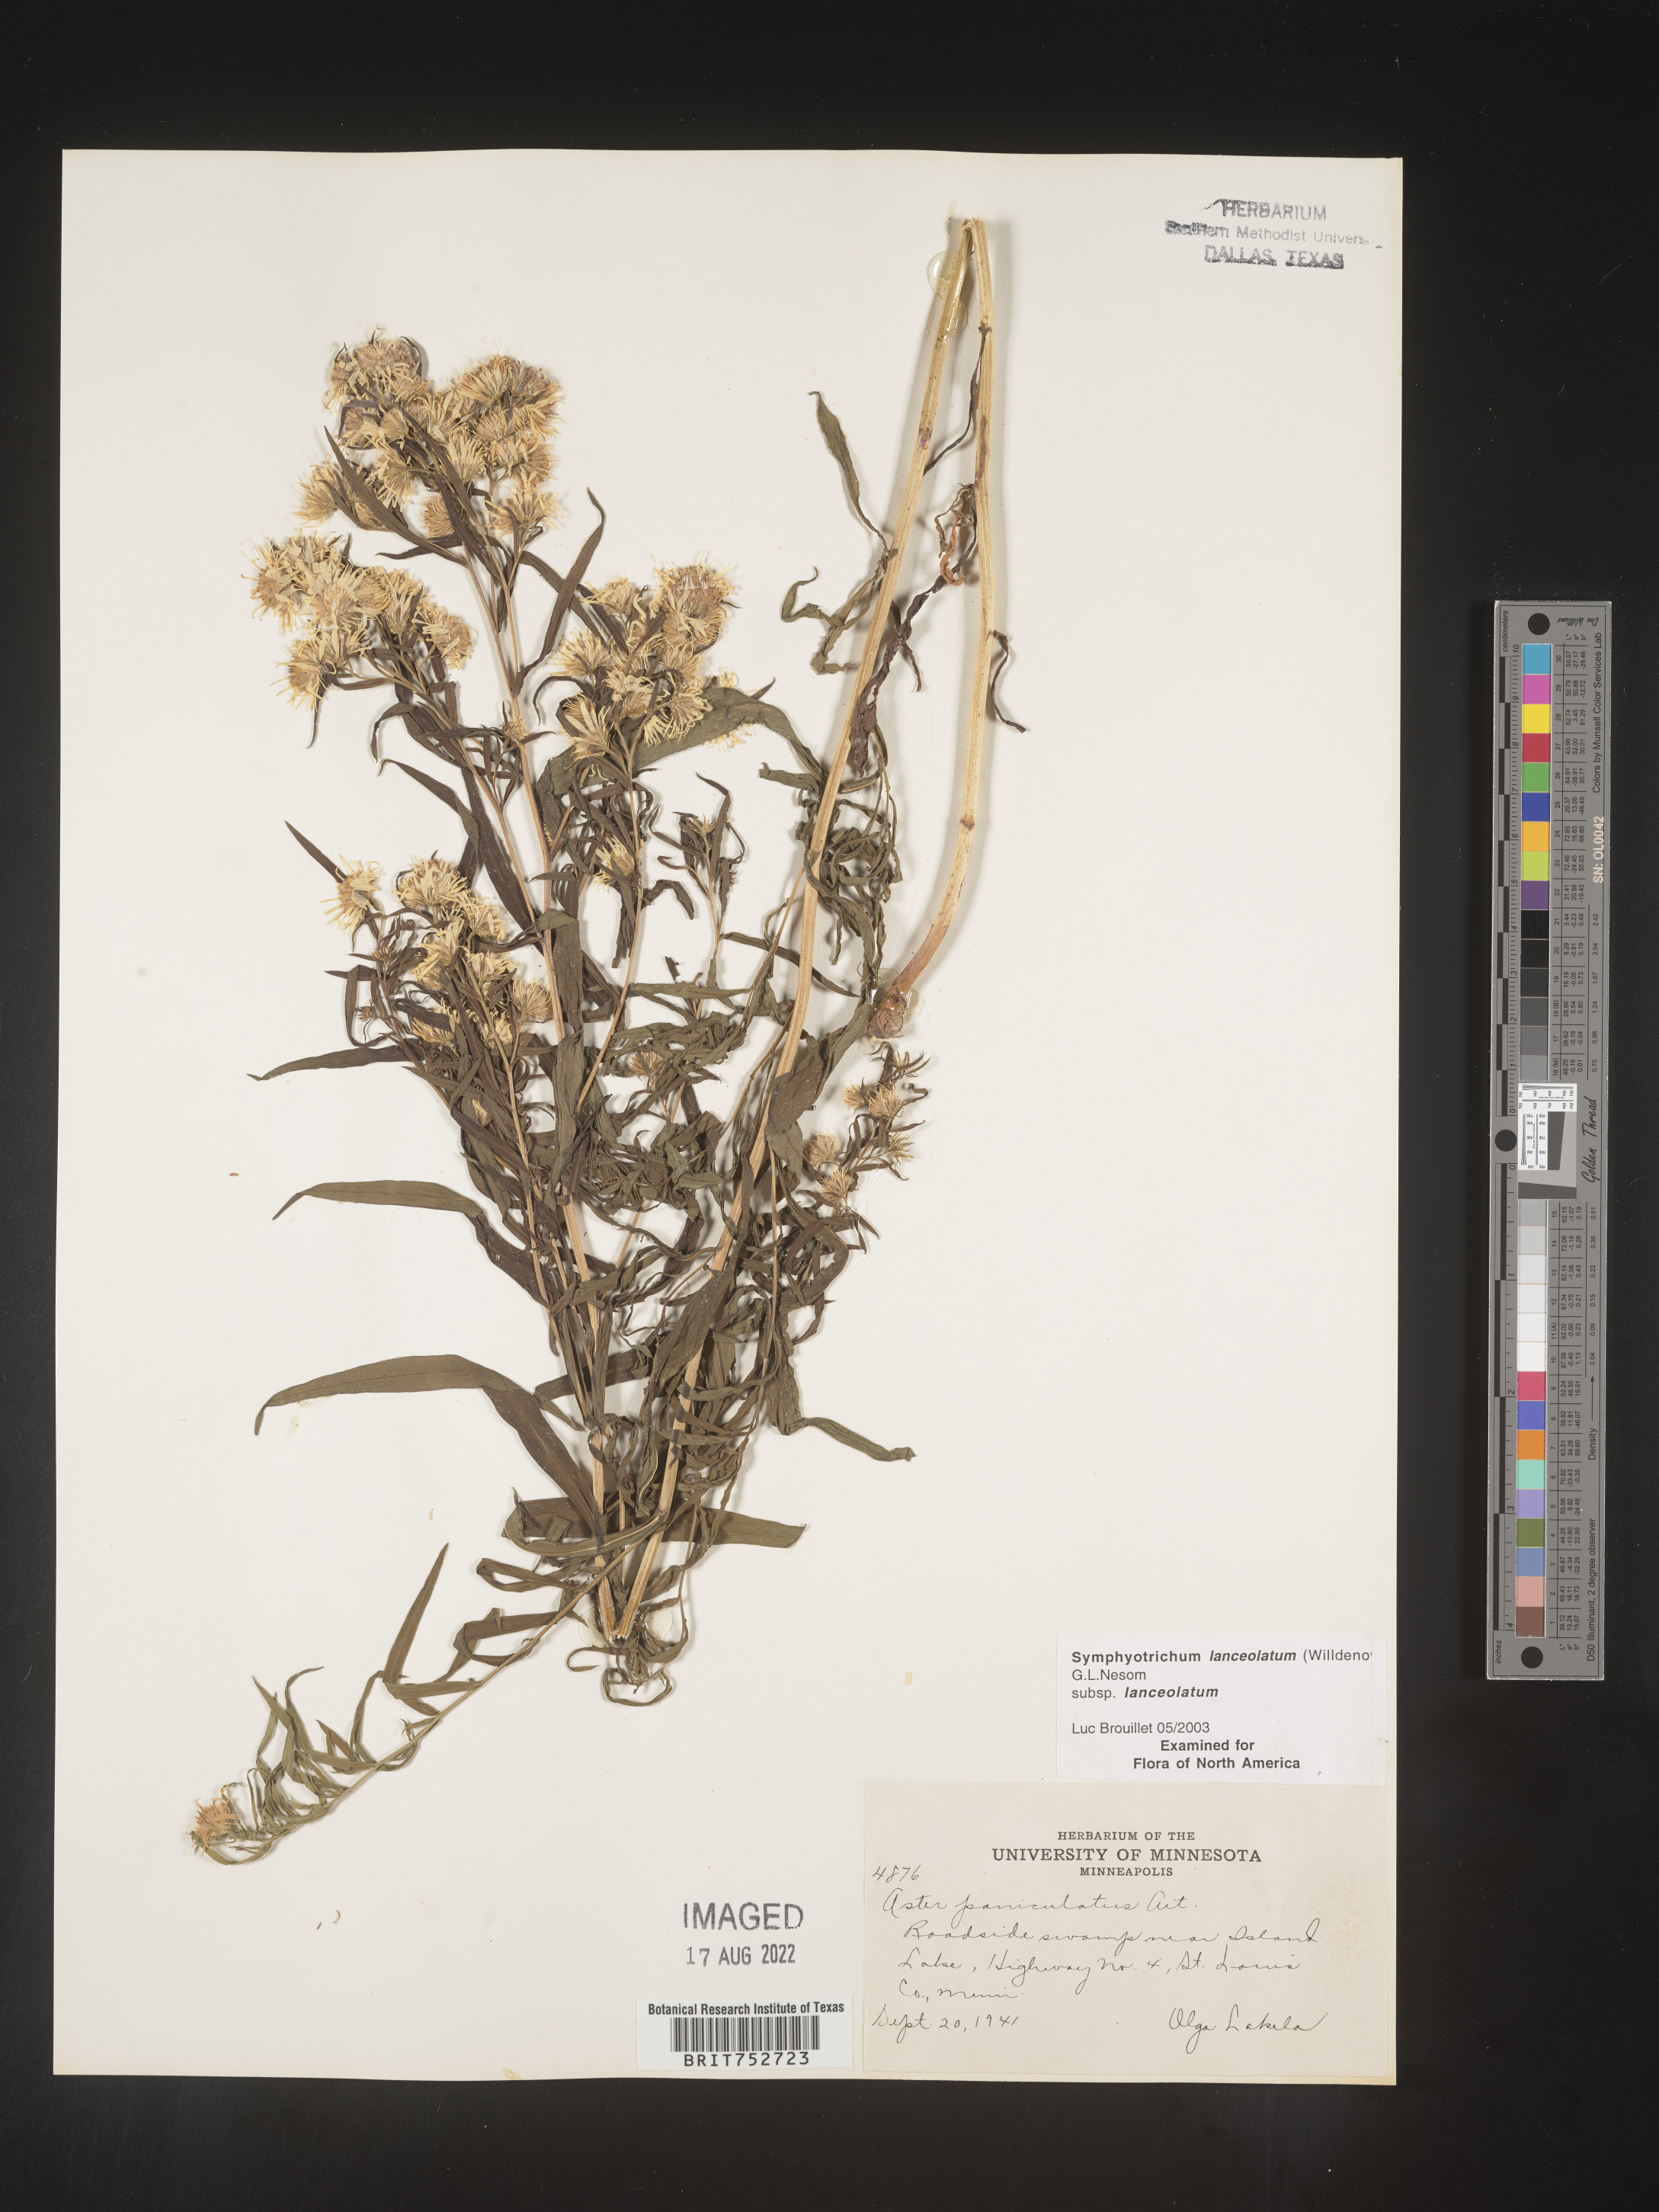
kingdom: Plantae
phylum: Tracheophyta
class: Magnoliopsida
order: Asterales
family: Asteraceae
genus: Symphyotrichum
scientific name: Symphyotrichum lanceolatum
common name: Panicled aster
